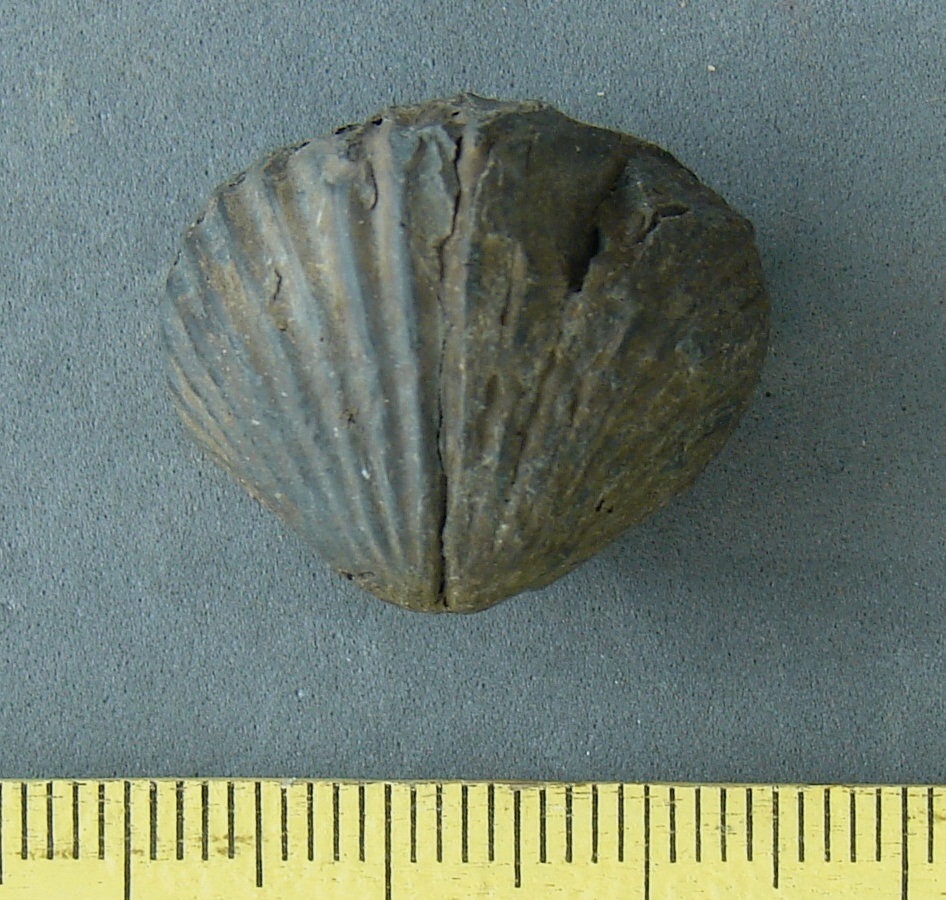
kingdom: Animalia
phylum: Brachiopoda
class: Rhynchonellata
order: Rhynchonellida
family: Rhynchonellidae
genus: Rhynchonella
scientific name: Rhynchonella
